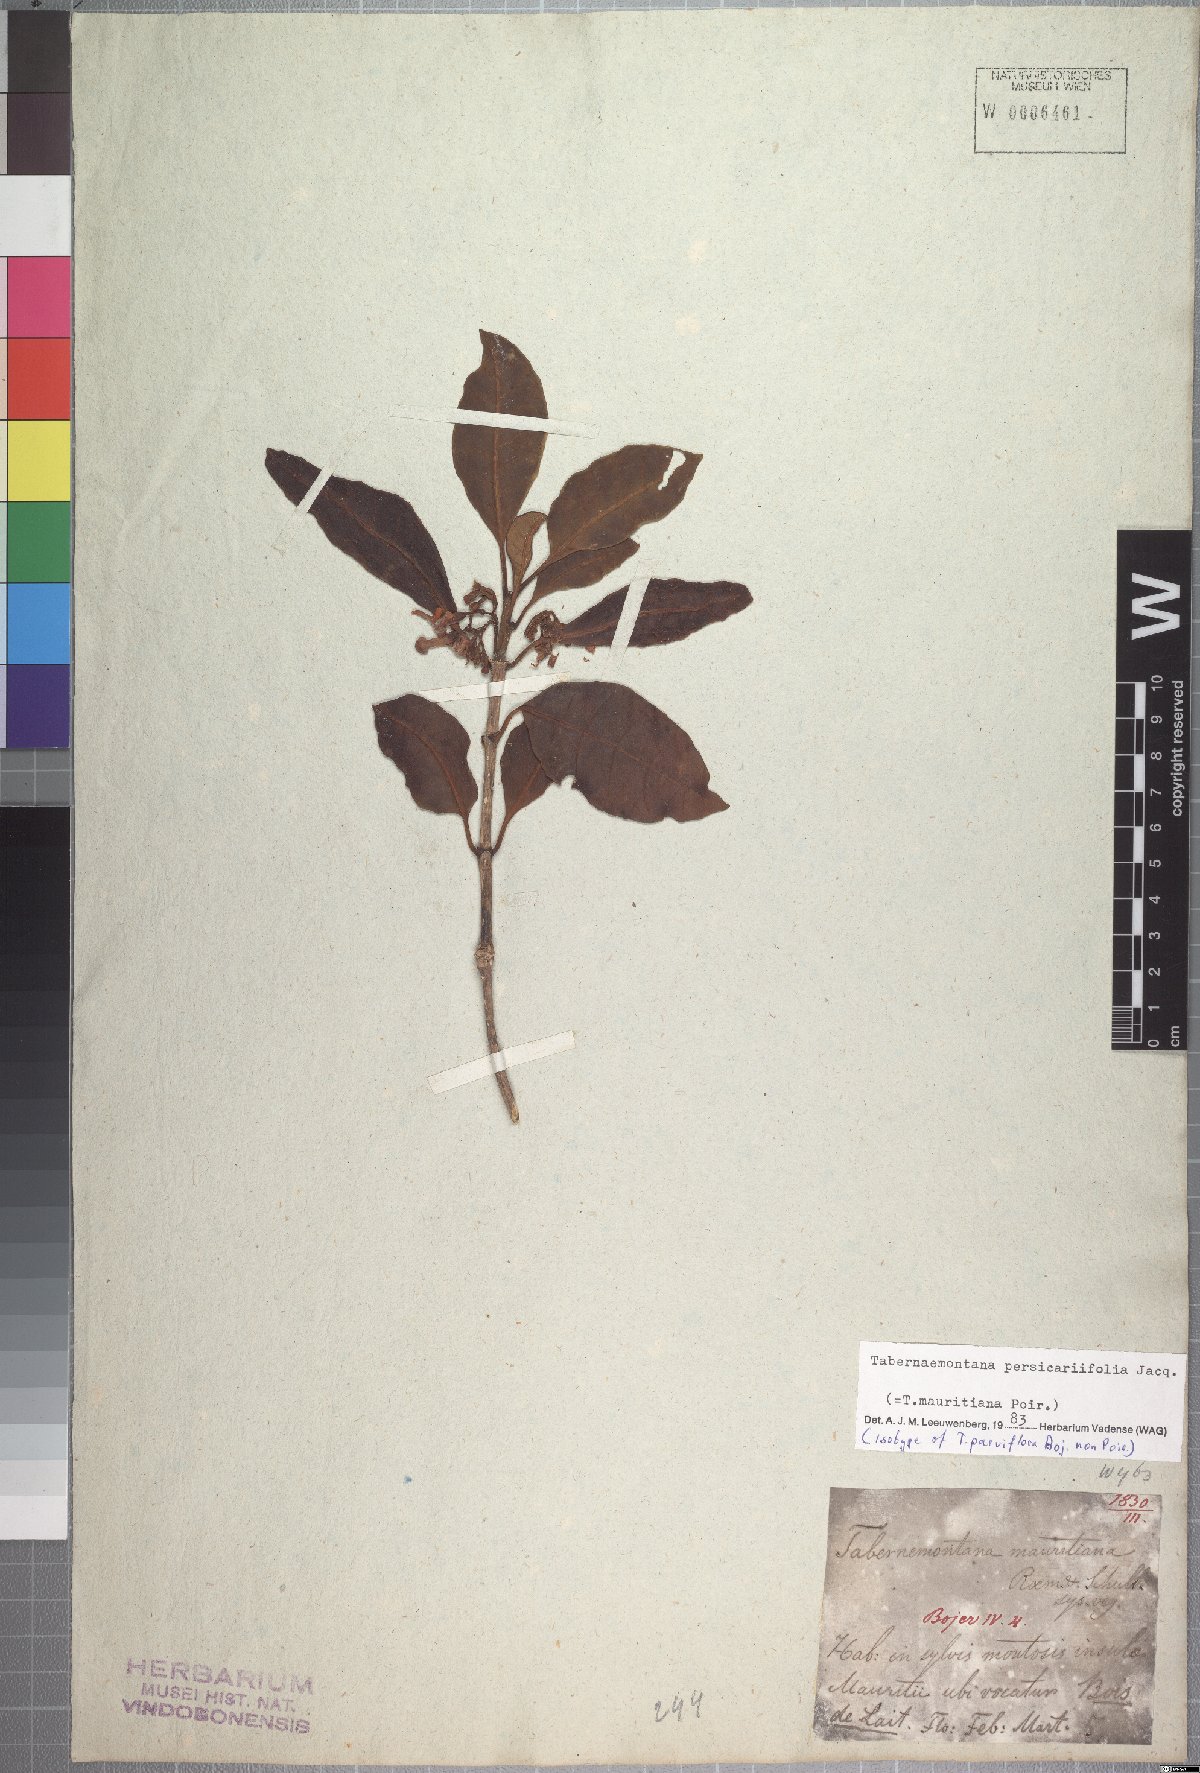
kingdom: Plantae
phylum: Tracheophyta
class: Magnoliopsida
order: Gentianales
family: Apocynaceae
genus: Tabernaemontana
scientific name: Tabernaemontana persicariifolia
